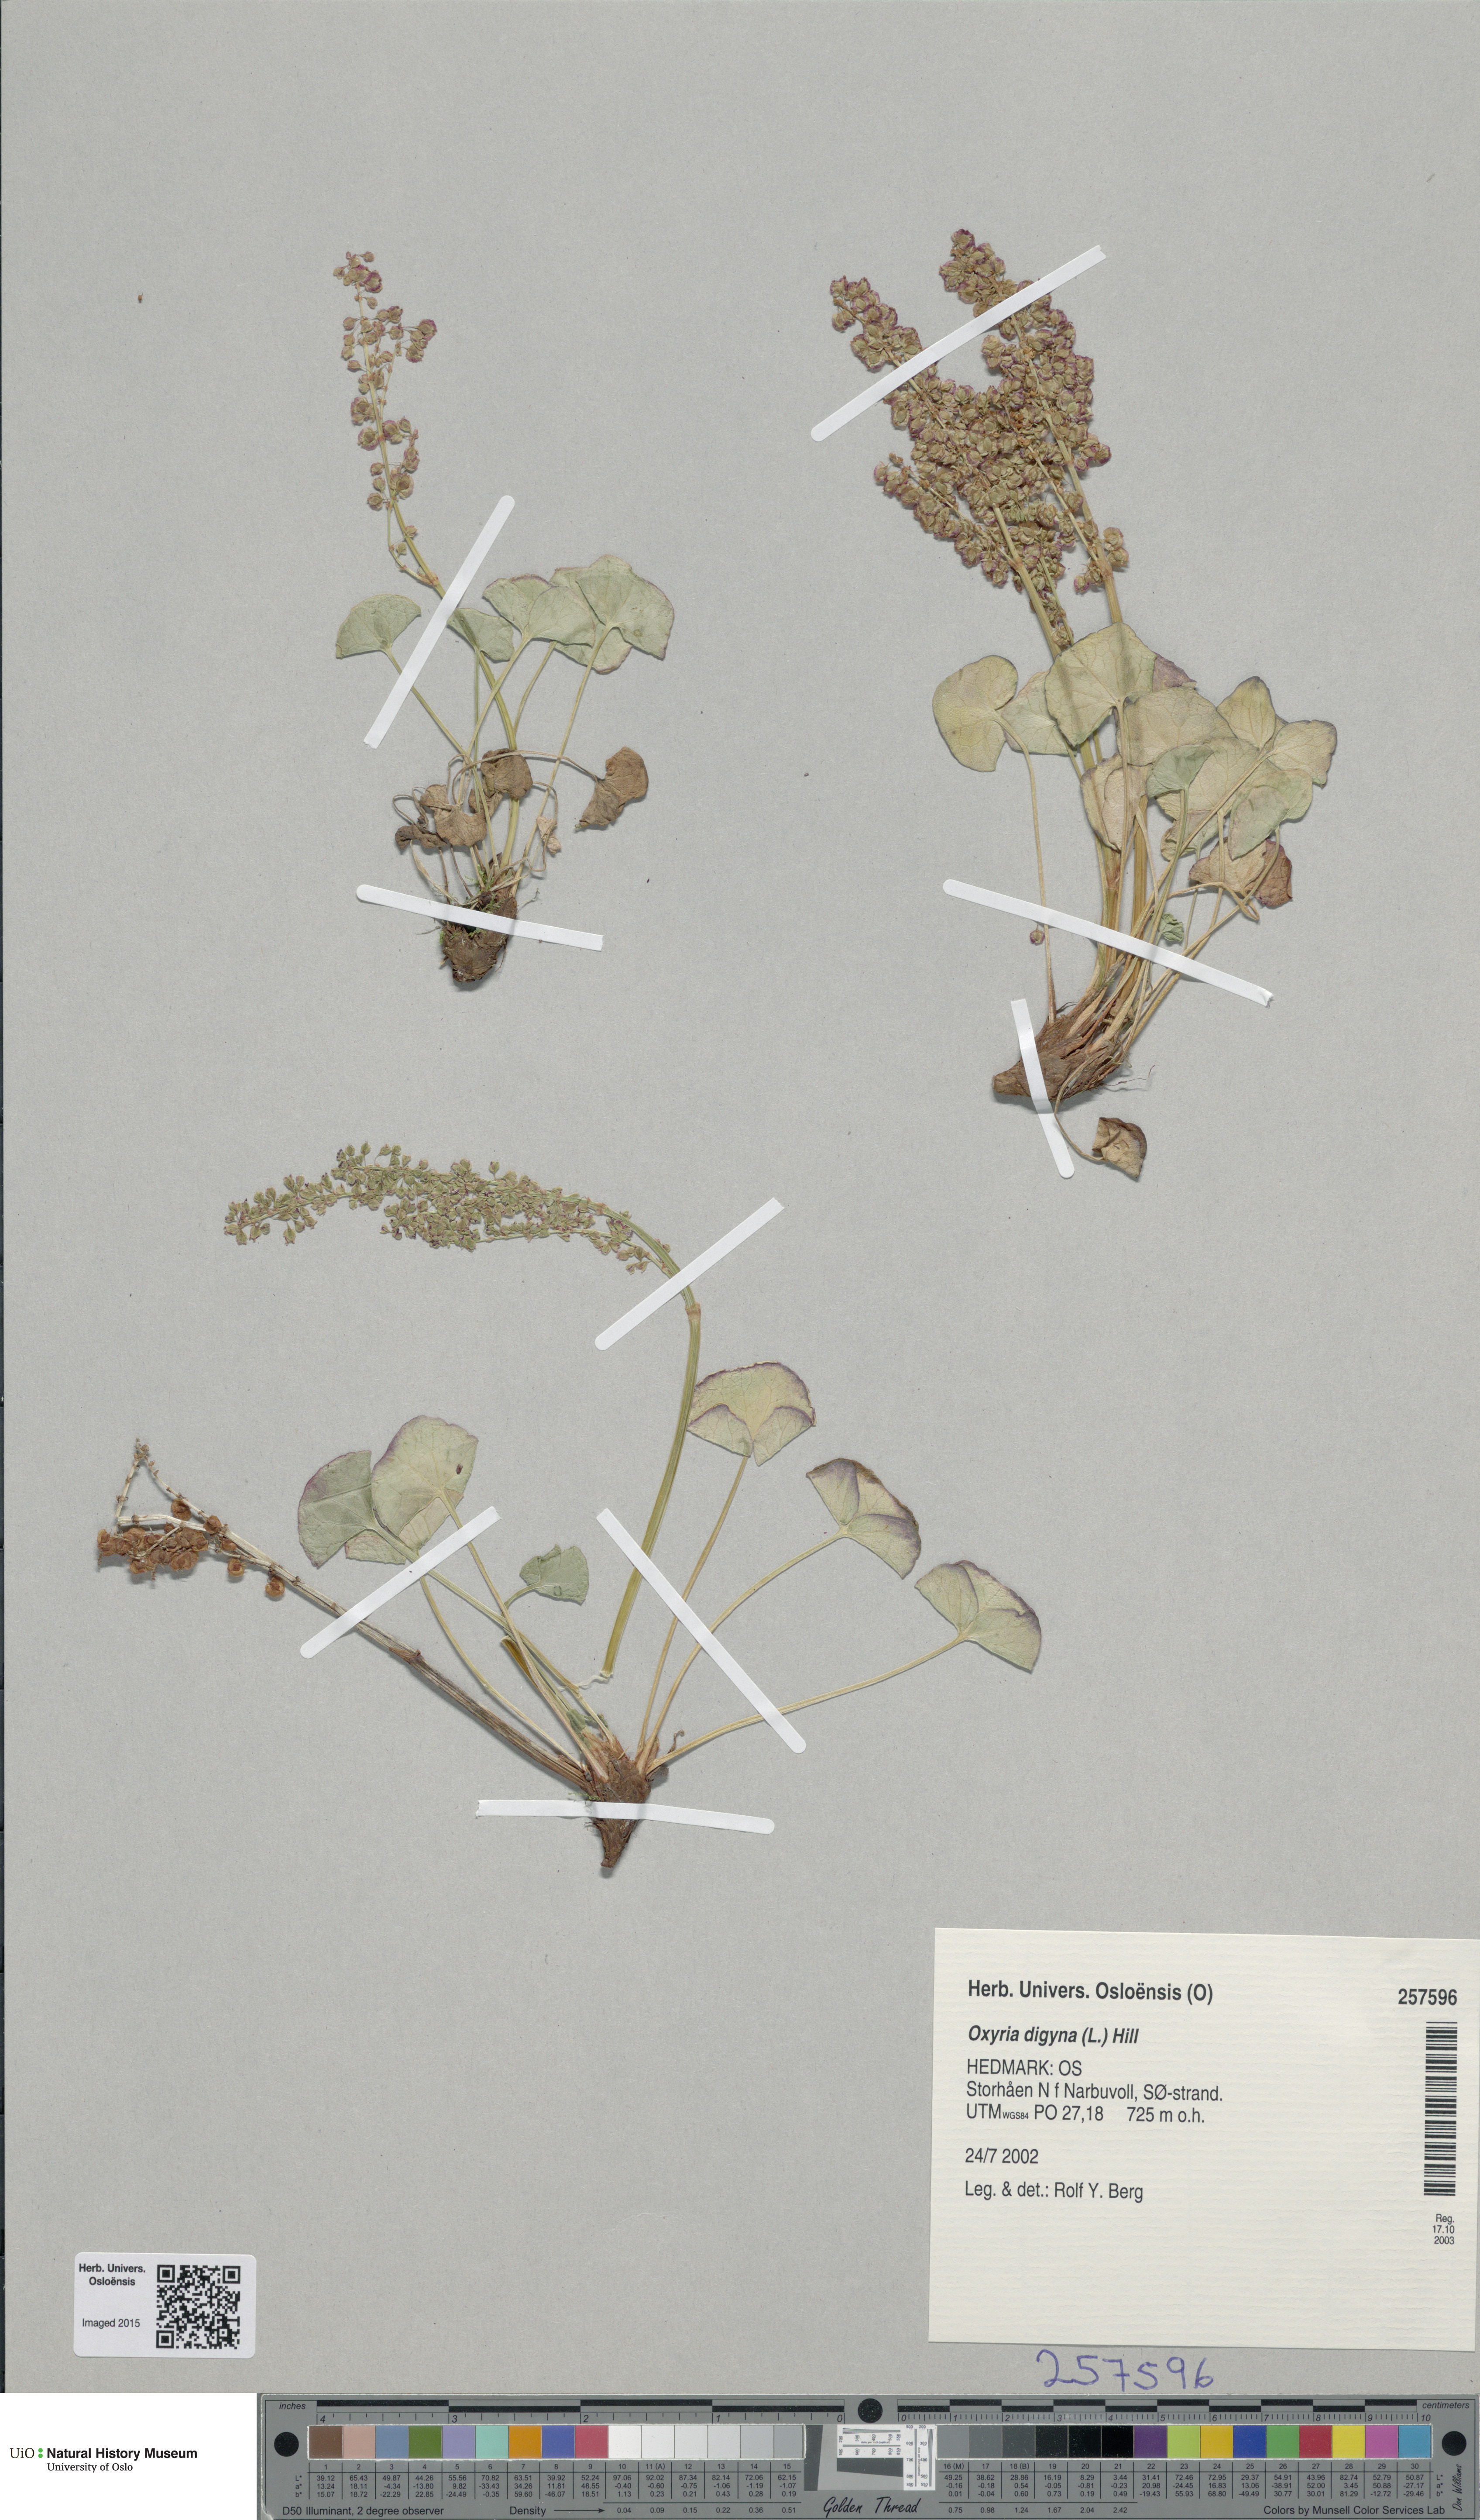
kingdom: Plantae
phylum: Tracheophyta
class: Magnoliopsida
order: Caryophyllales
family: Polygonaceae
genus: Oxyria
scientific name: Oxyria digyna
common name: Alpine mountain-sorrel
